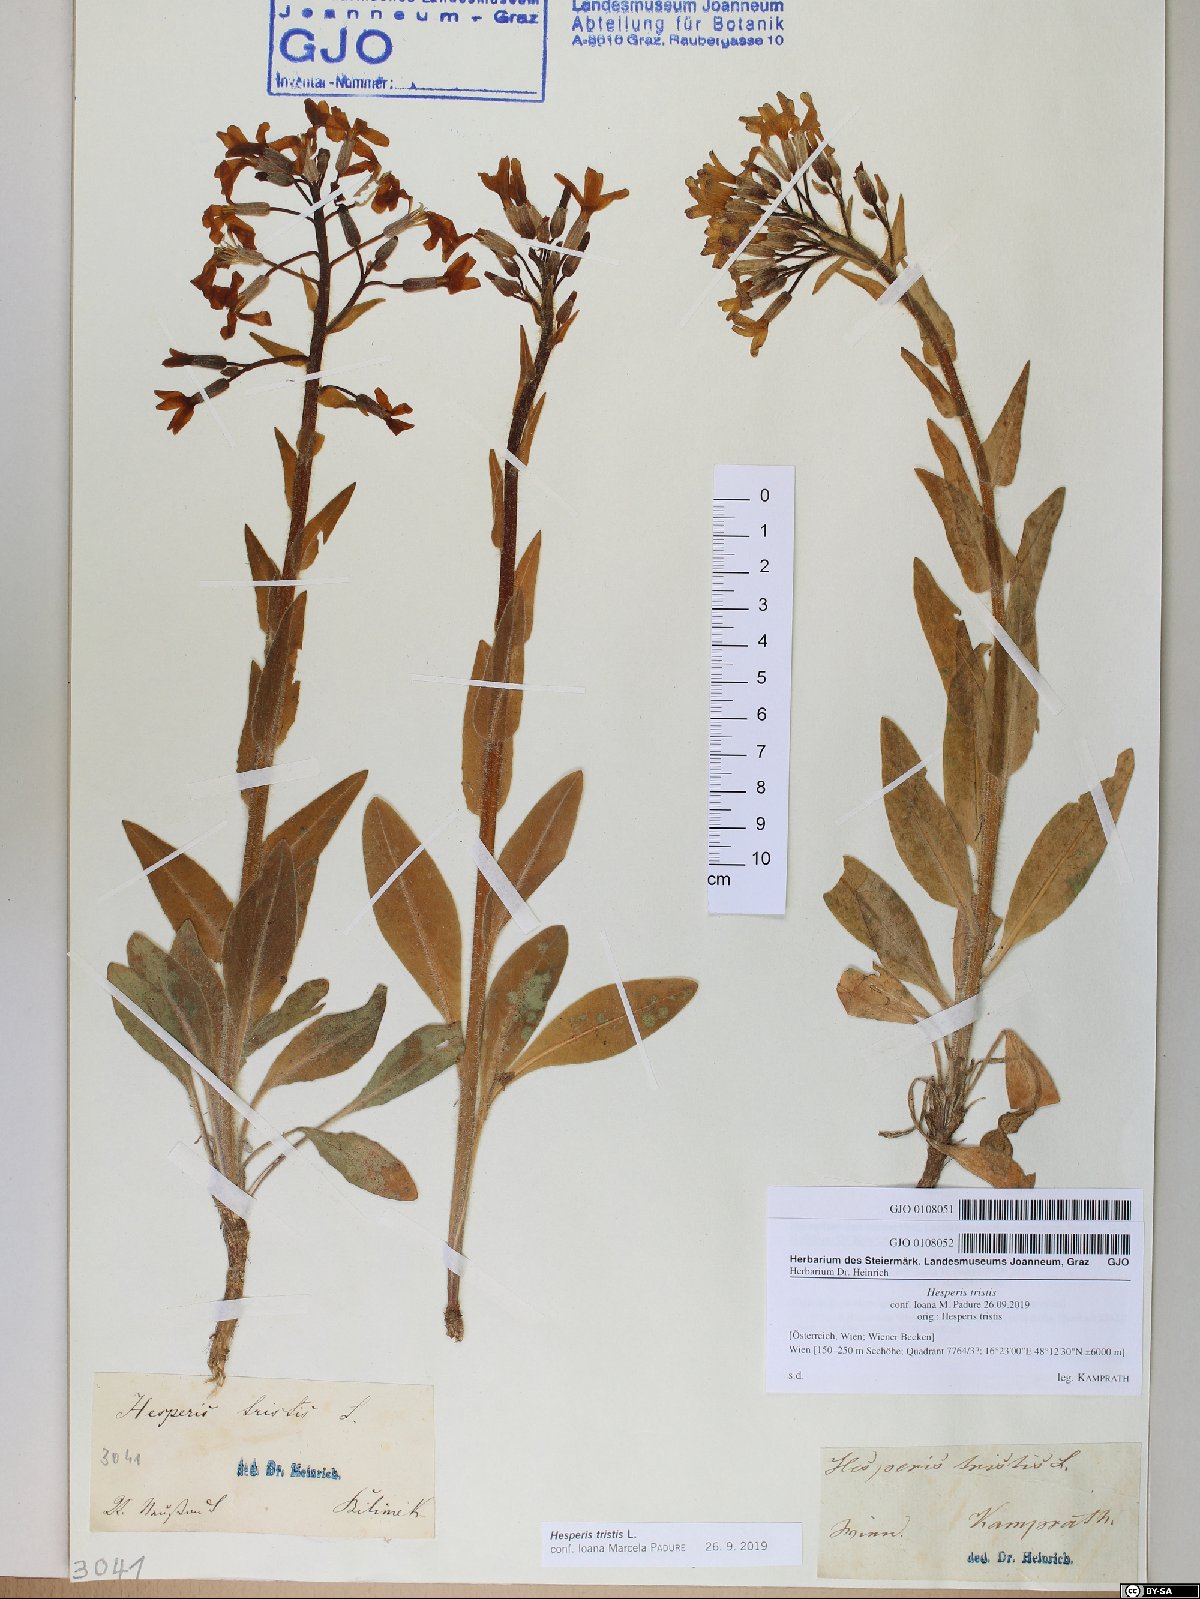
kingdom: Plantae
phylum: Tracheophyta
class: Magnoliopsida
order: Brassicales
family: Brassicaceae
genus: Hesperis
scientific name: Hesperis tristis
